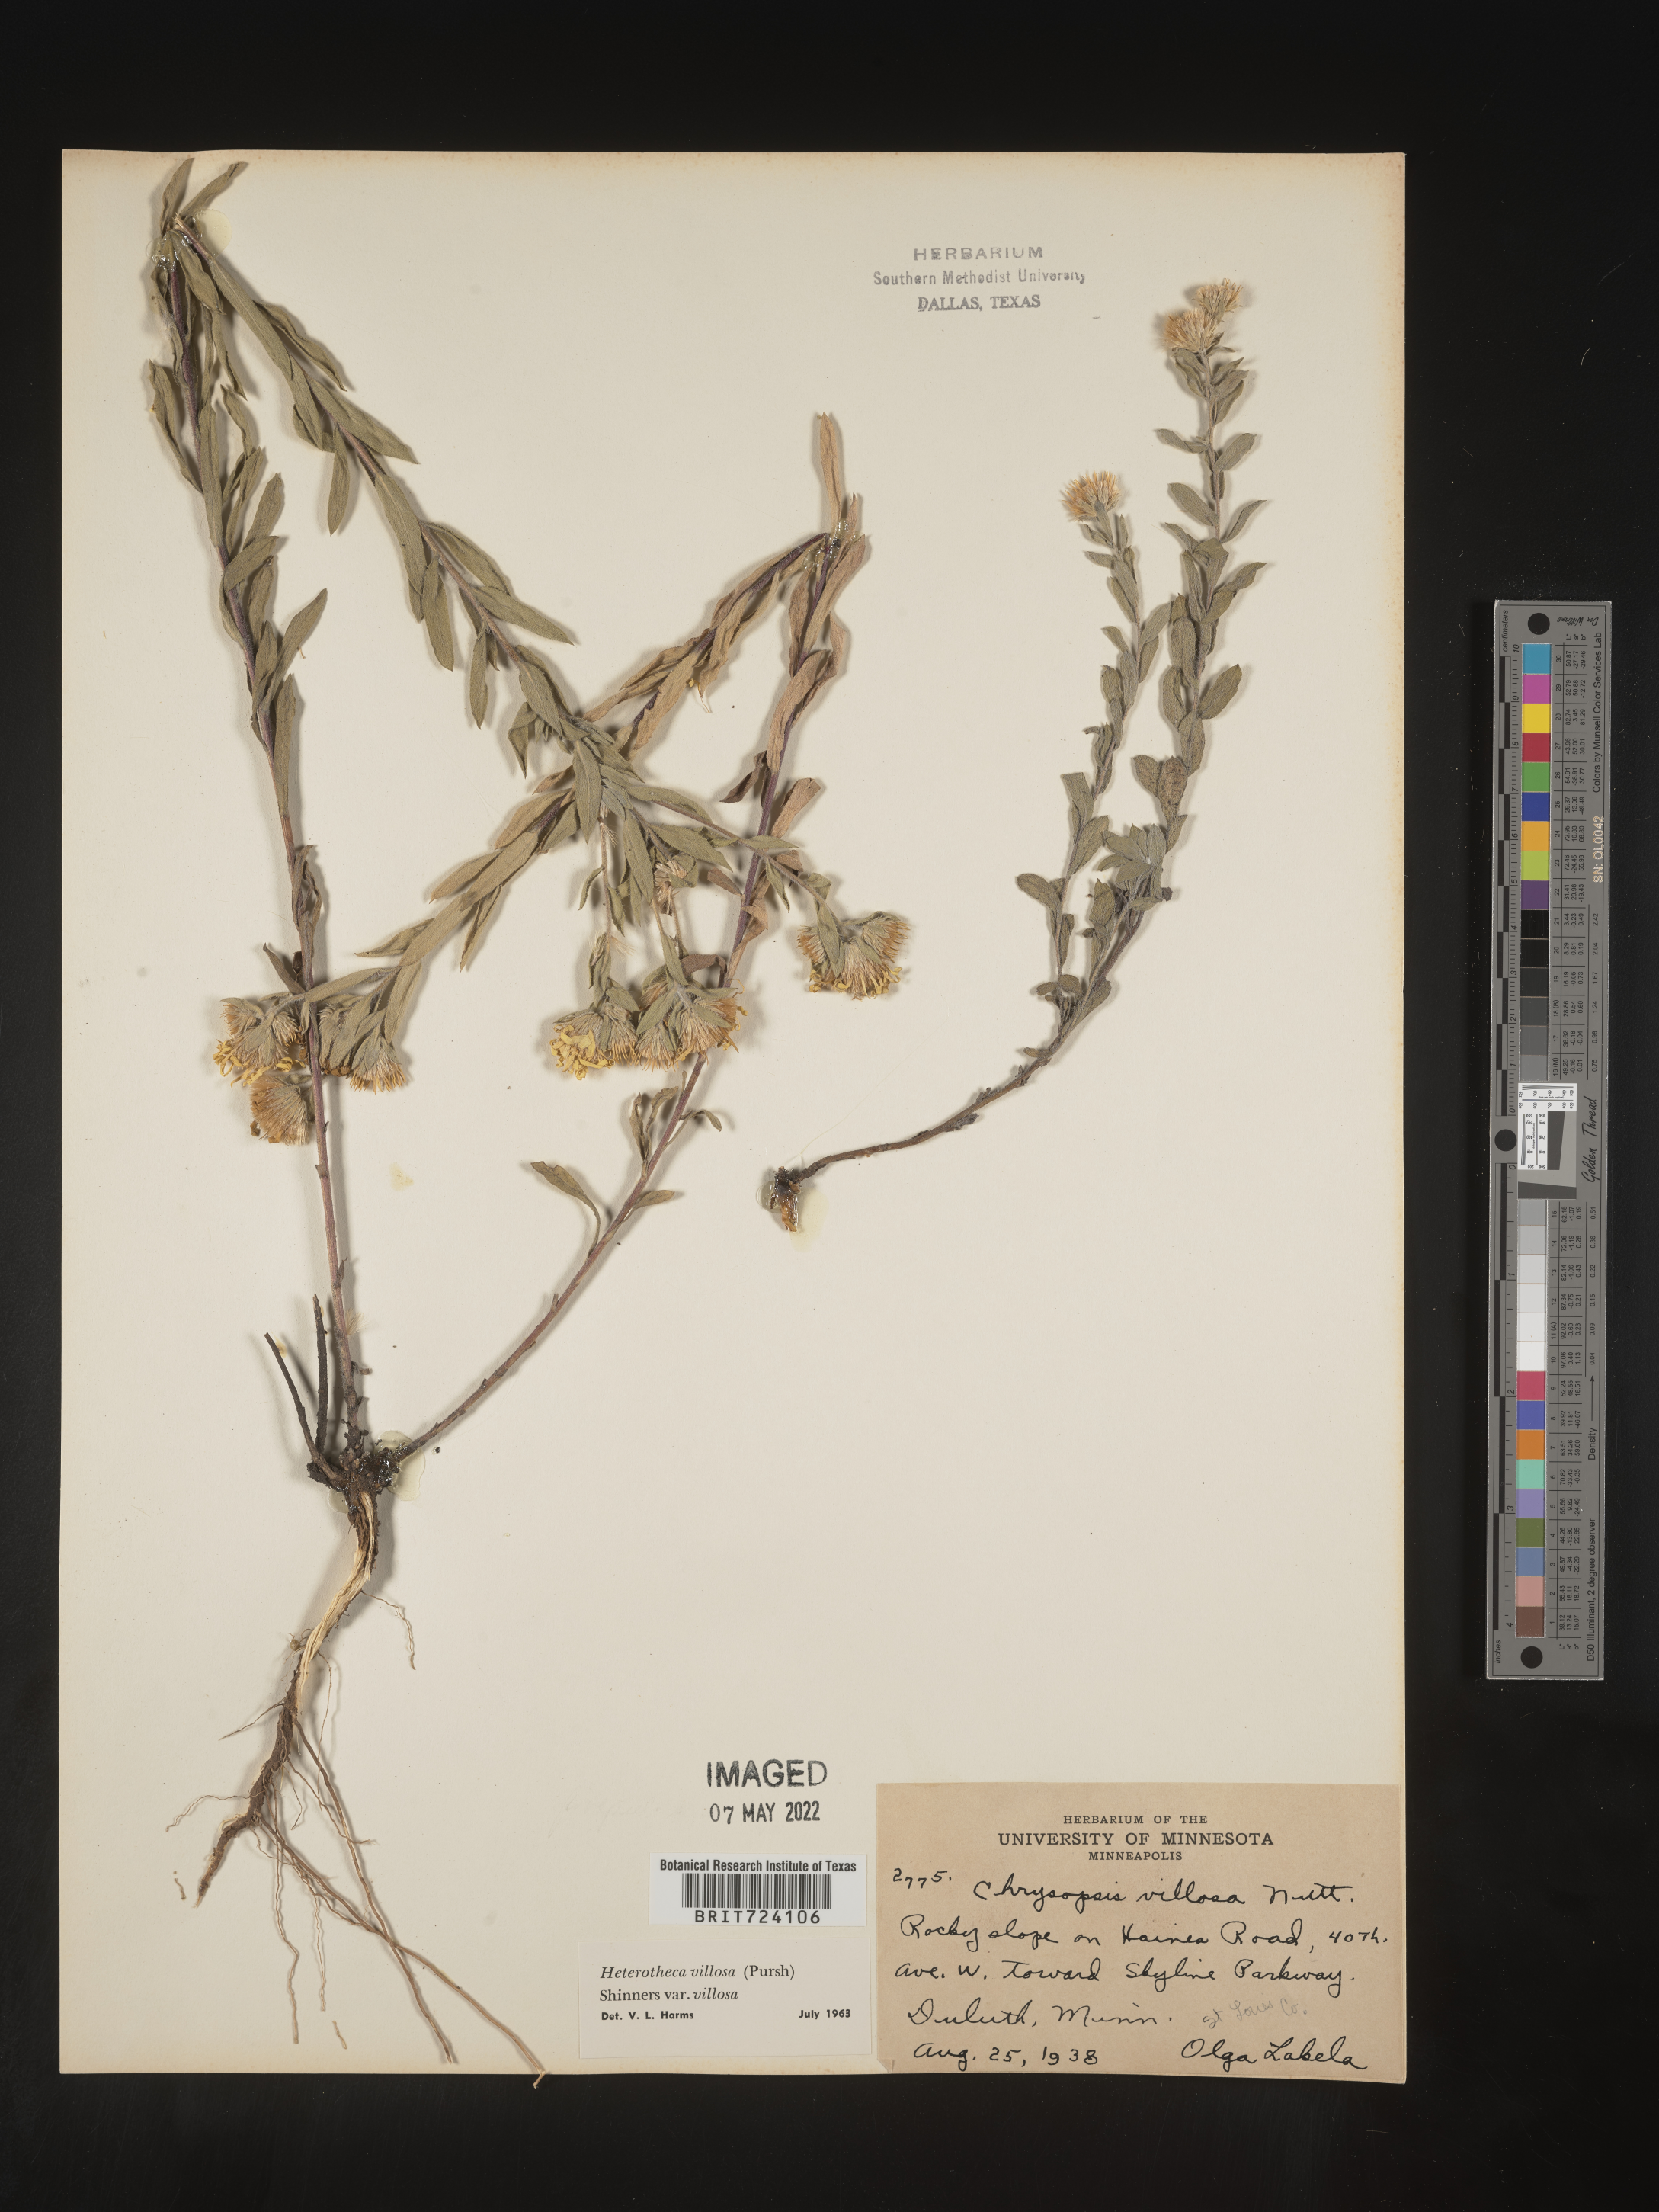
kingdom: Plantae
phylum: Tracheophyta
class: Magnoliopsida
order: Asterales
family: Asteraceae
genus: Heterotheca
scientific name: Heterotheca villosa
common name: Hairy false goldenaster
